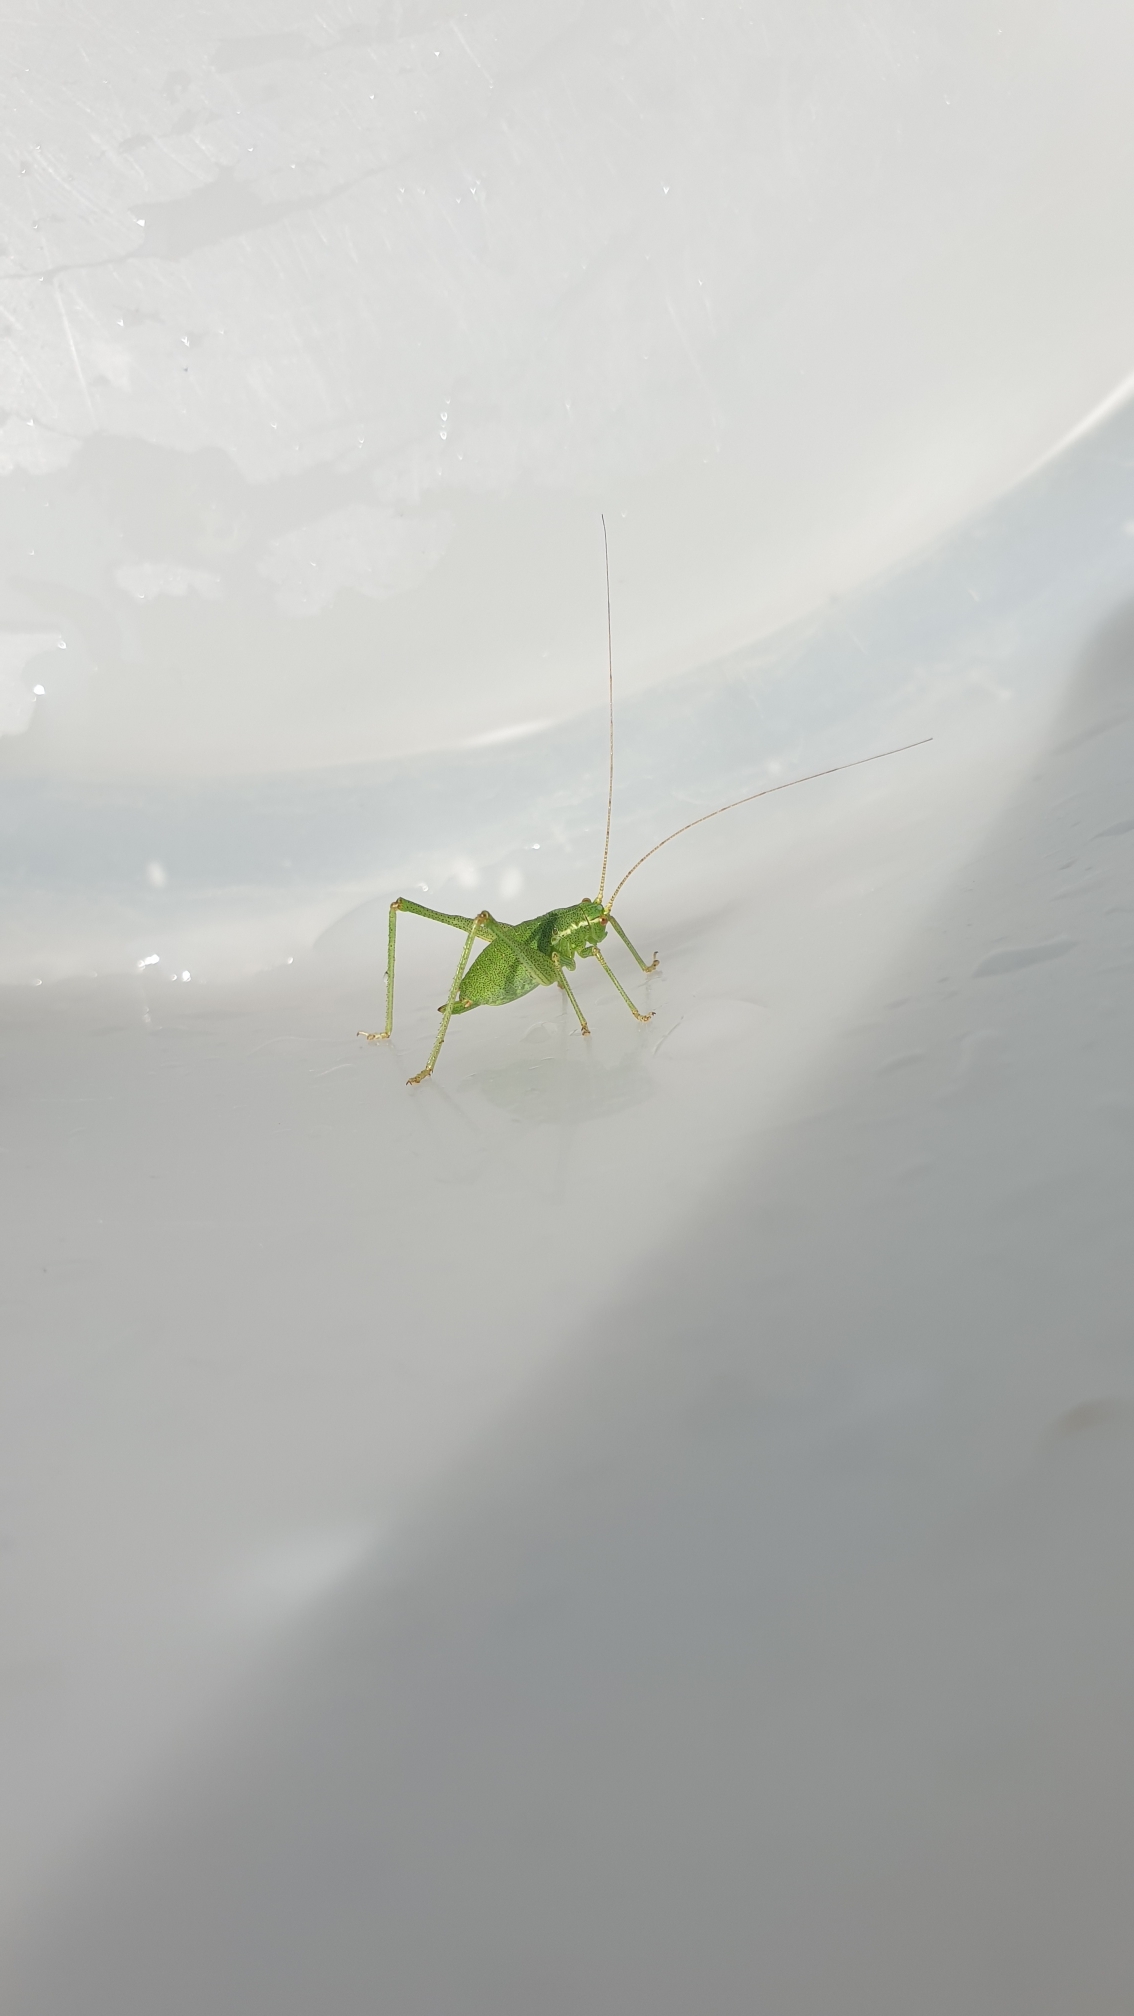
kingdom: Animalia
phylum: Arthropoda
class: Insecta
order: Orthoptera
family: Tettigoniidae
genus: Leptophyes
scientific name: Leptophyes punctatissima
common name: Krumknivgræshoppe
